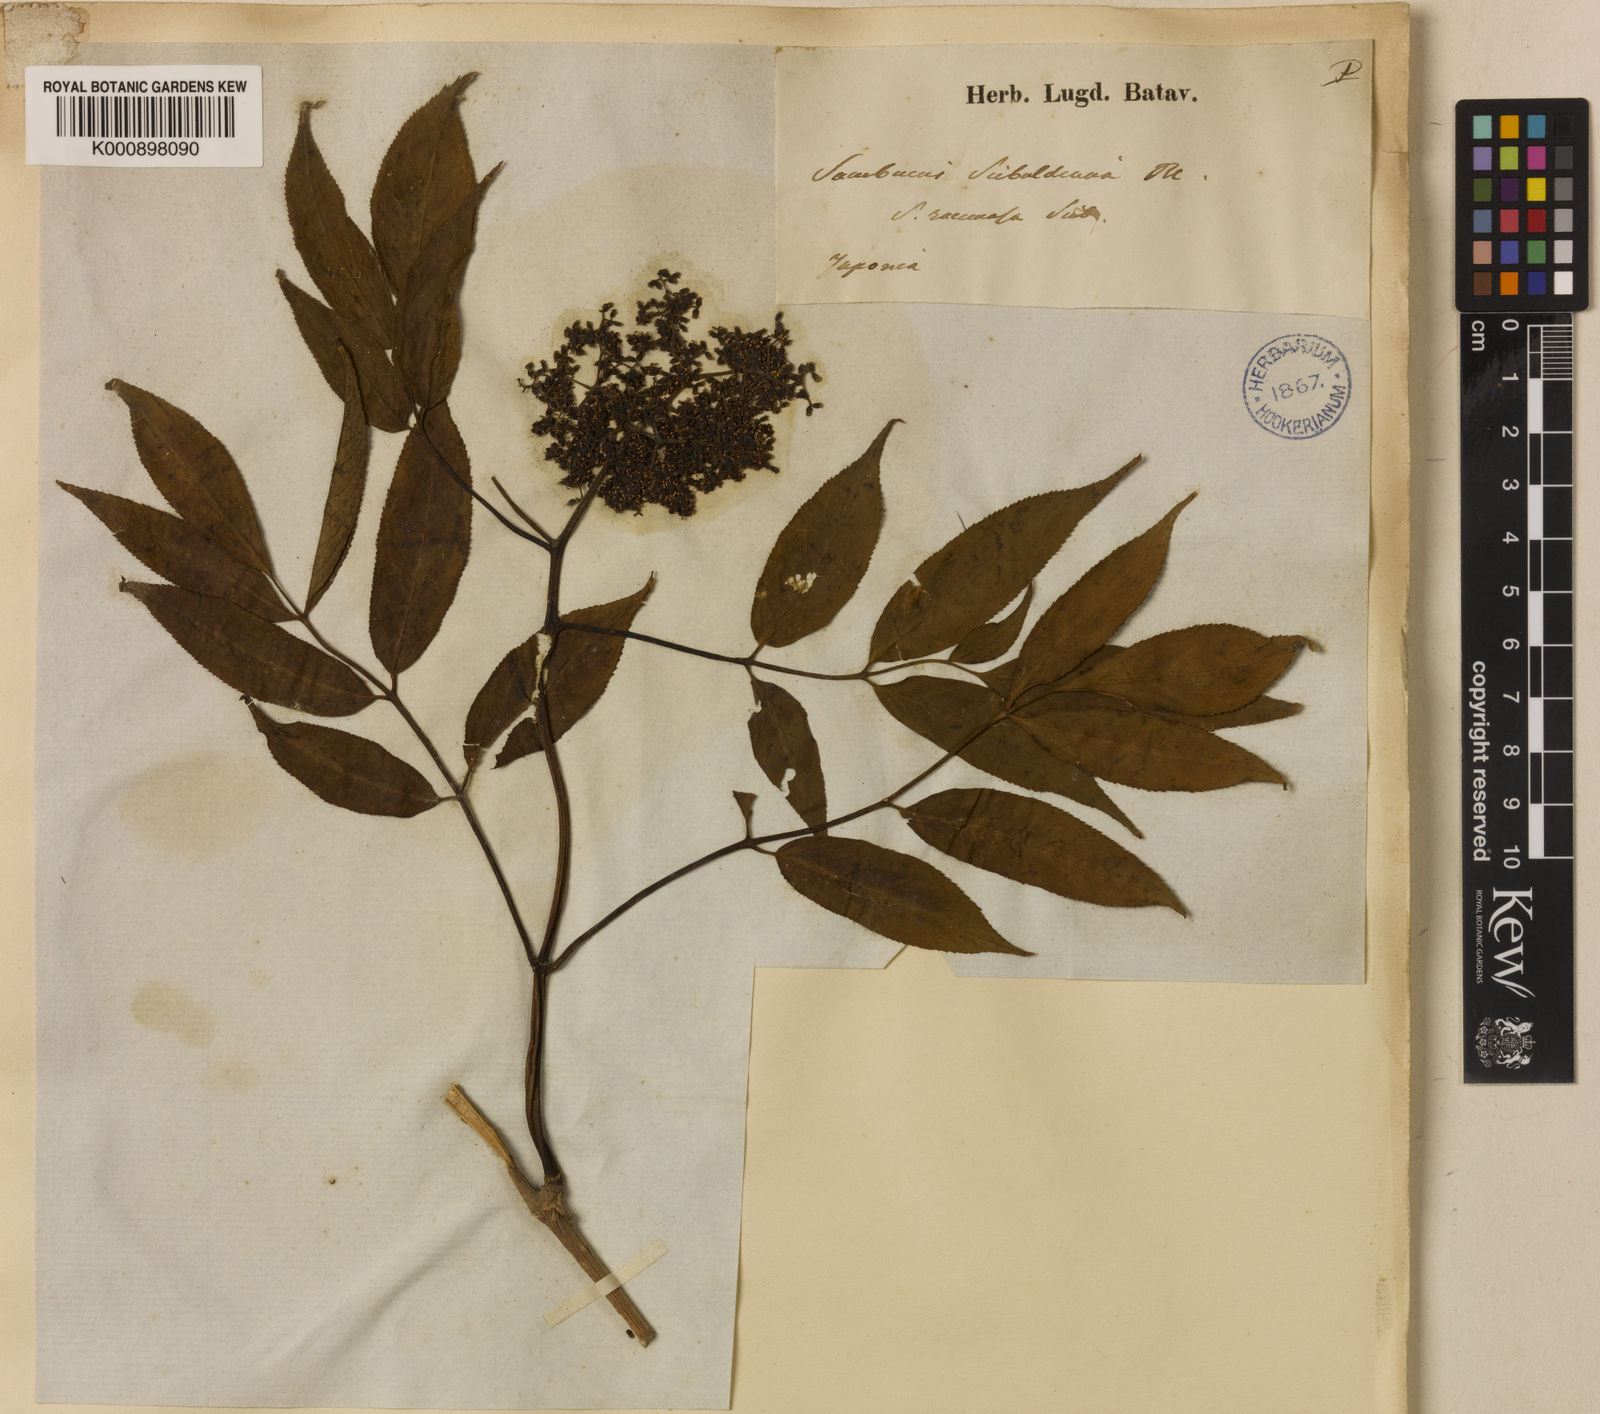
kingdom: Plantae
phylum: Tracheophyta
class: Magnoliopsida
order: Dipsacales
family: Viburnaceae
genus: Sambucus
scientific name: Sambucus
